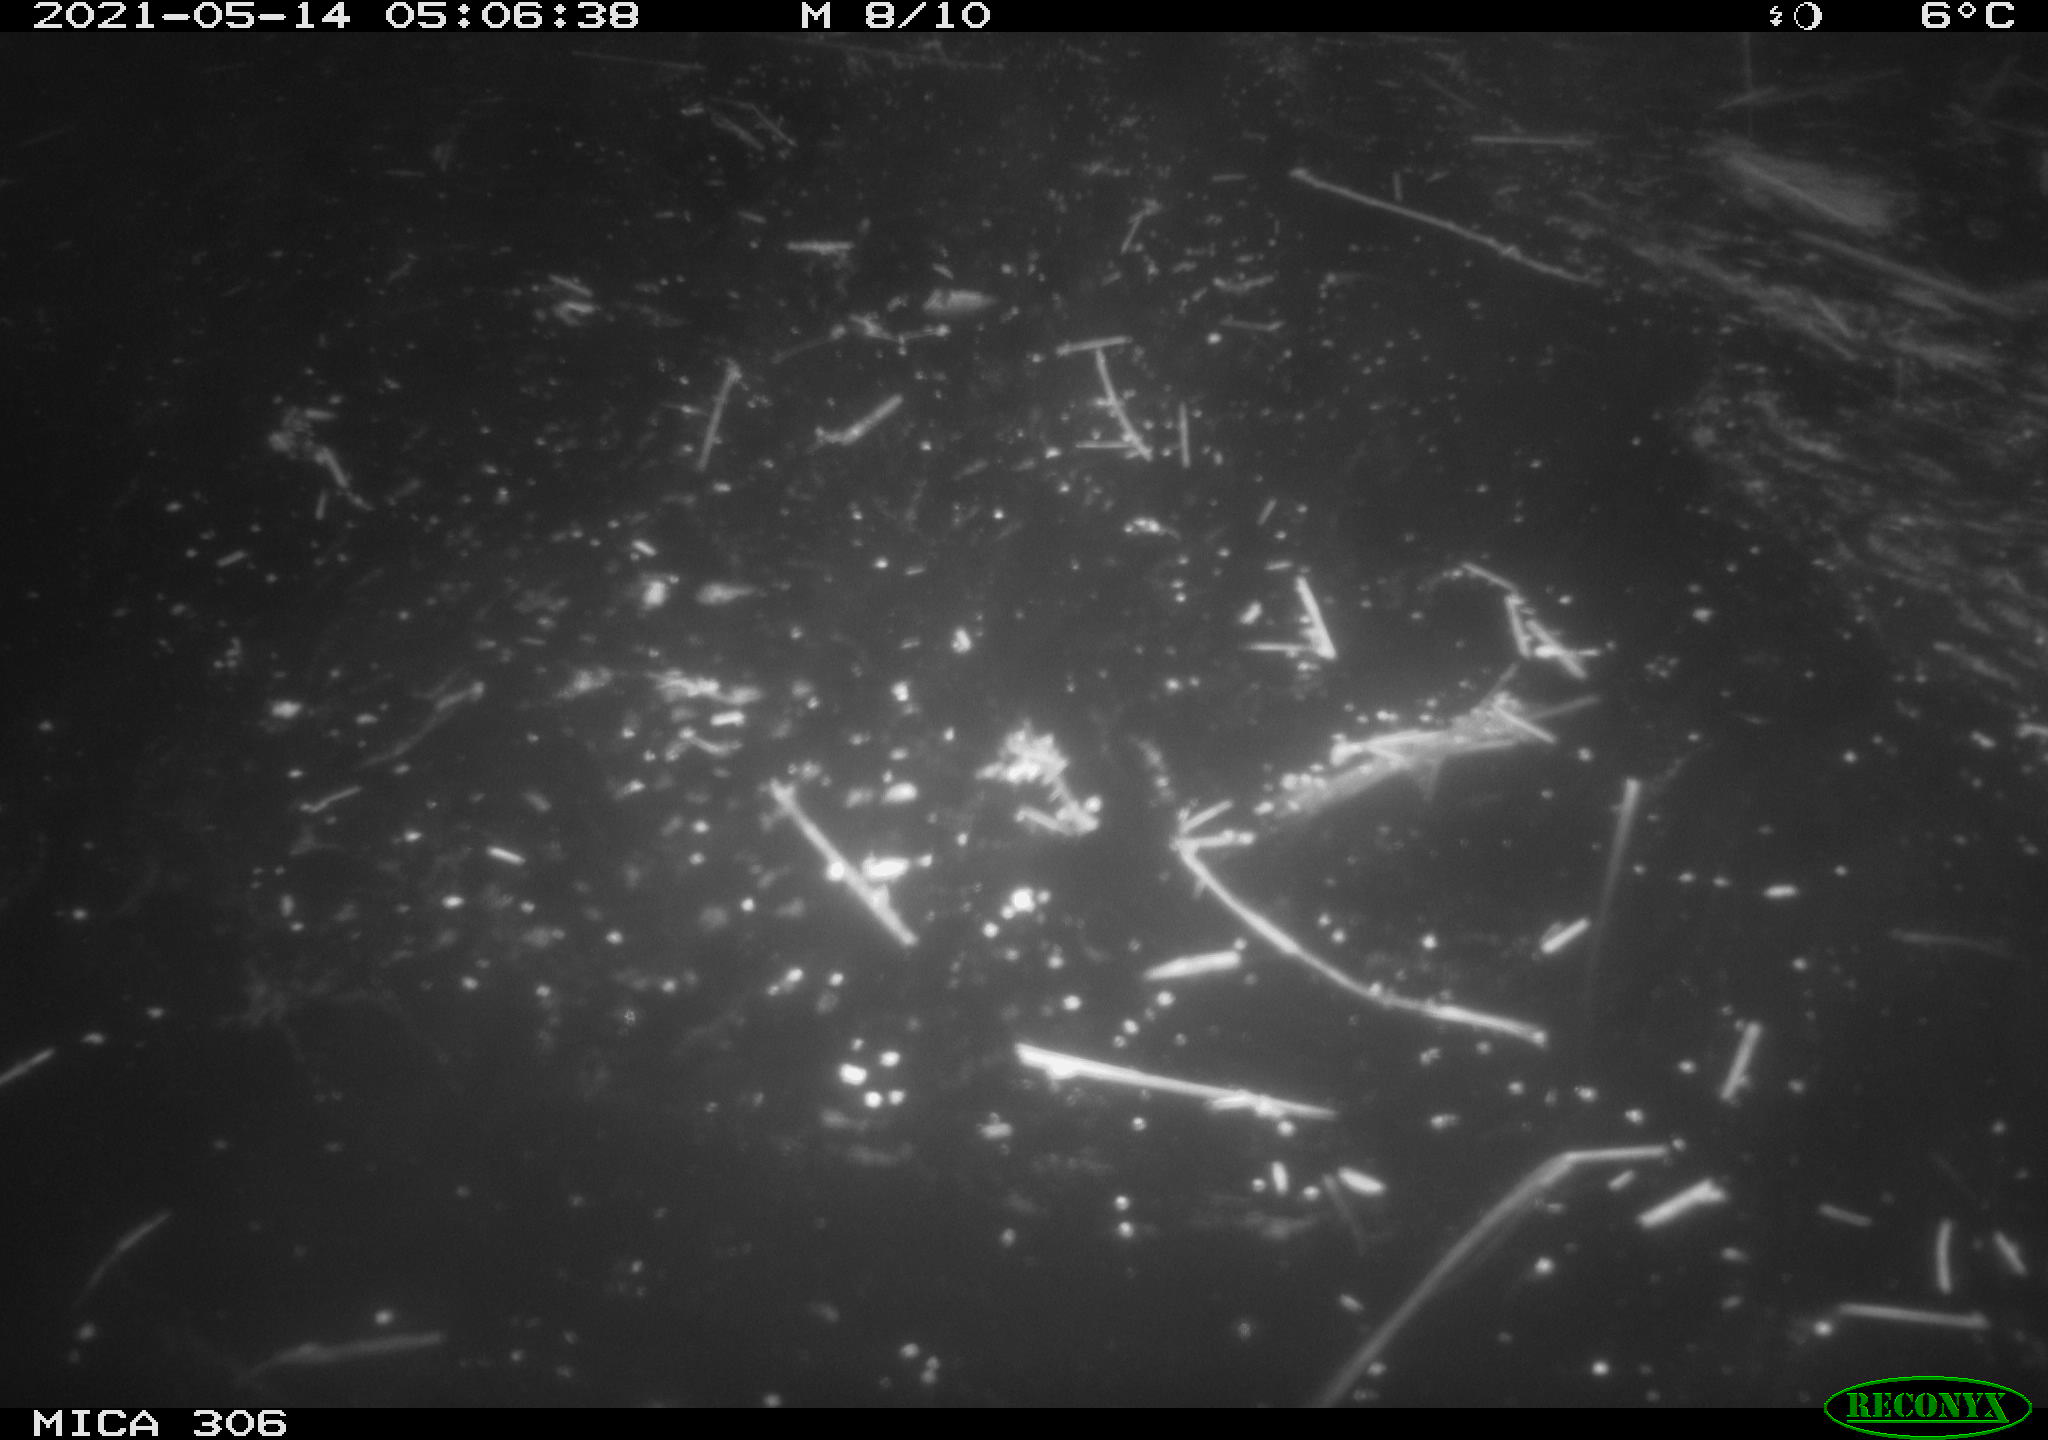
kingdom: Animalia
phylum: Chordata
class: Aves
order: Anseriformes
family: Anatidae
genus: Anas
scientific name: Anas platyrhynchos
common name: Mallard
